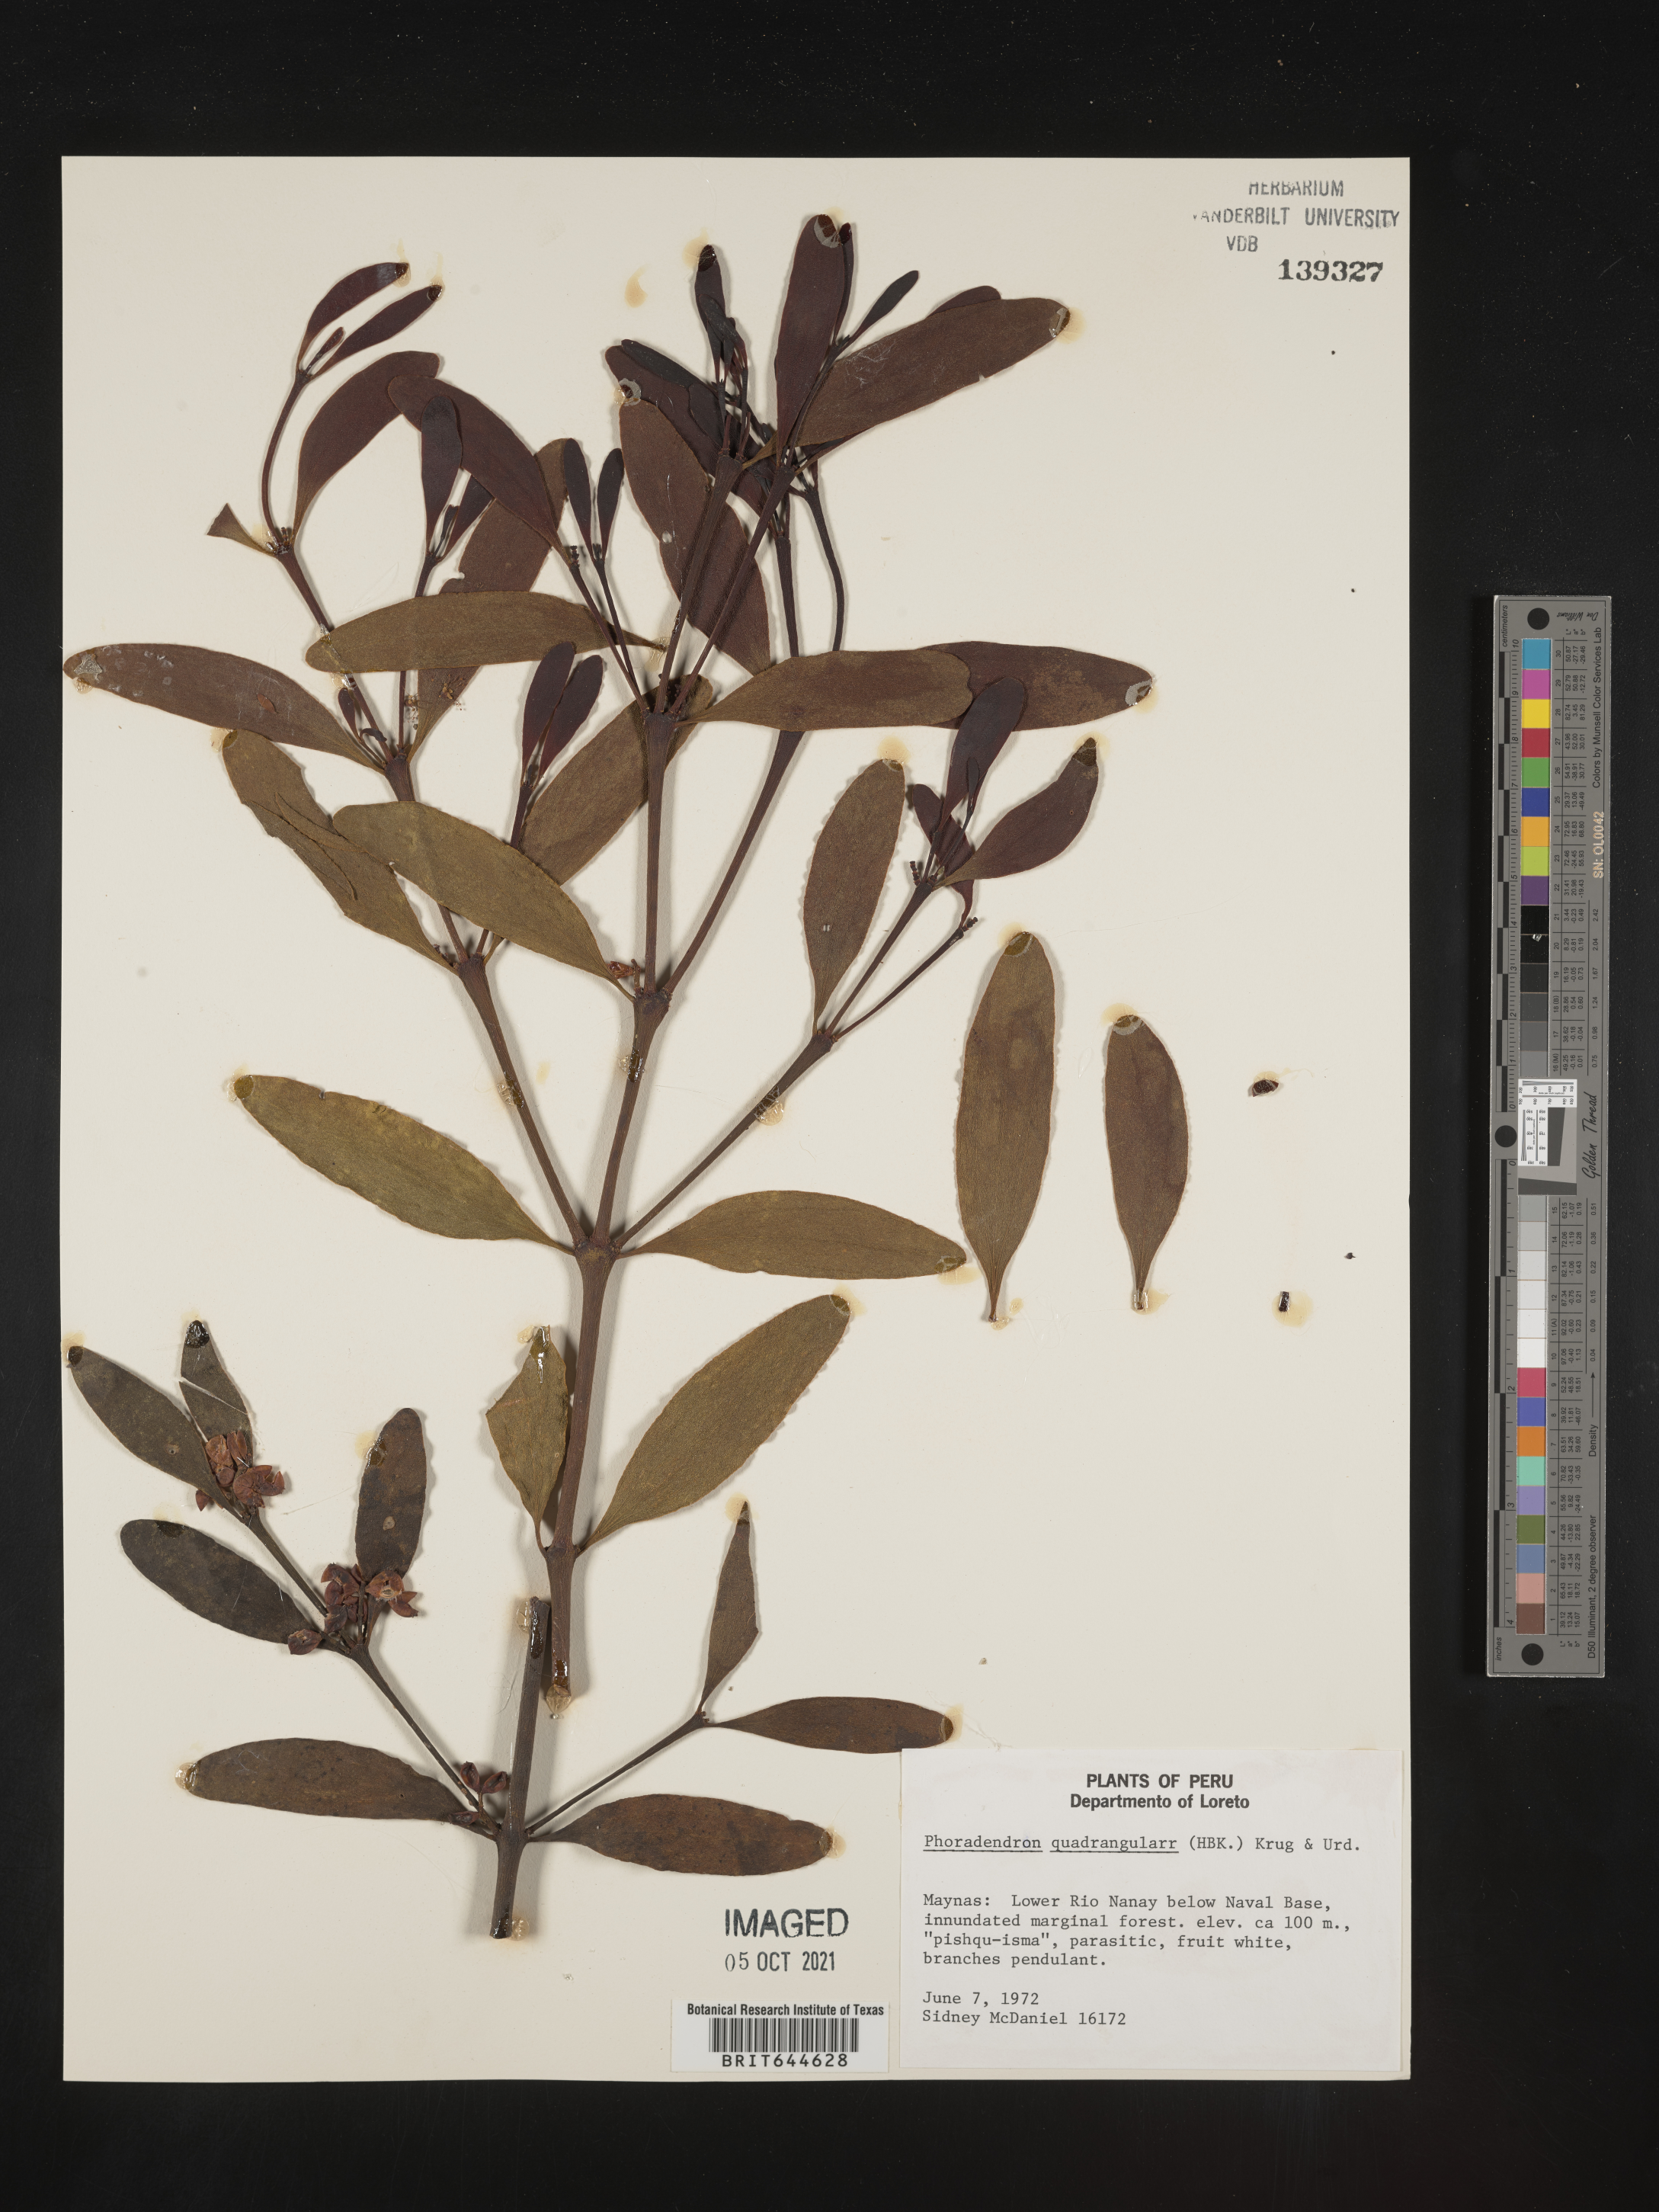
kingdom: Plantae
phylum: Tracheophyta
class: Magnoliopsida
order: Santalales
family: Viscaceae
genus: Phoradendron
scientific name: Phoradendron
